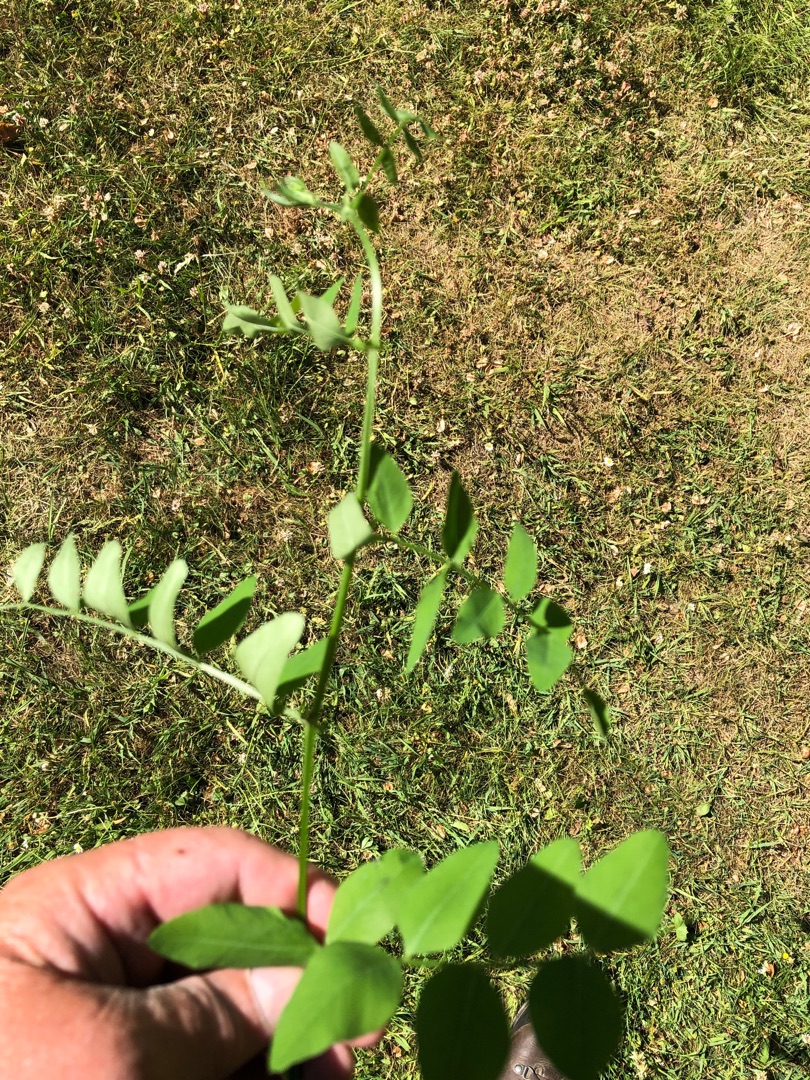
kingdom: Plantae
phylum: Tracheophyta
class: Magnoliopsida
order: Fabales
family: Fabaceae
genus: Vicia
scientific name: Vicia dumetorum
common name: Krat-vikke
